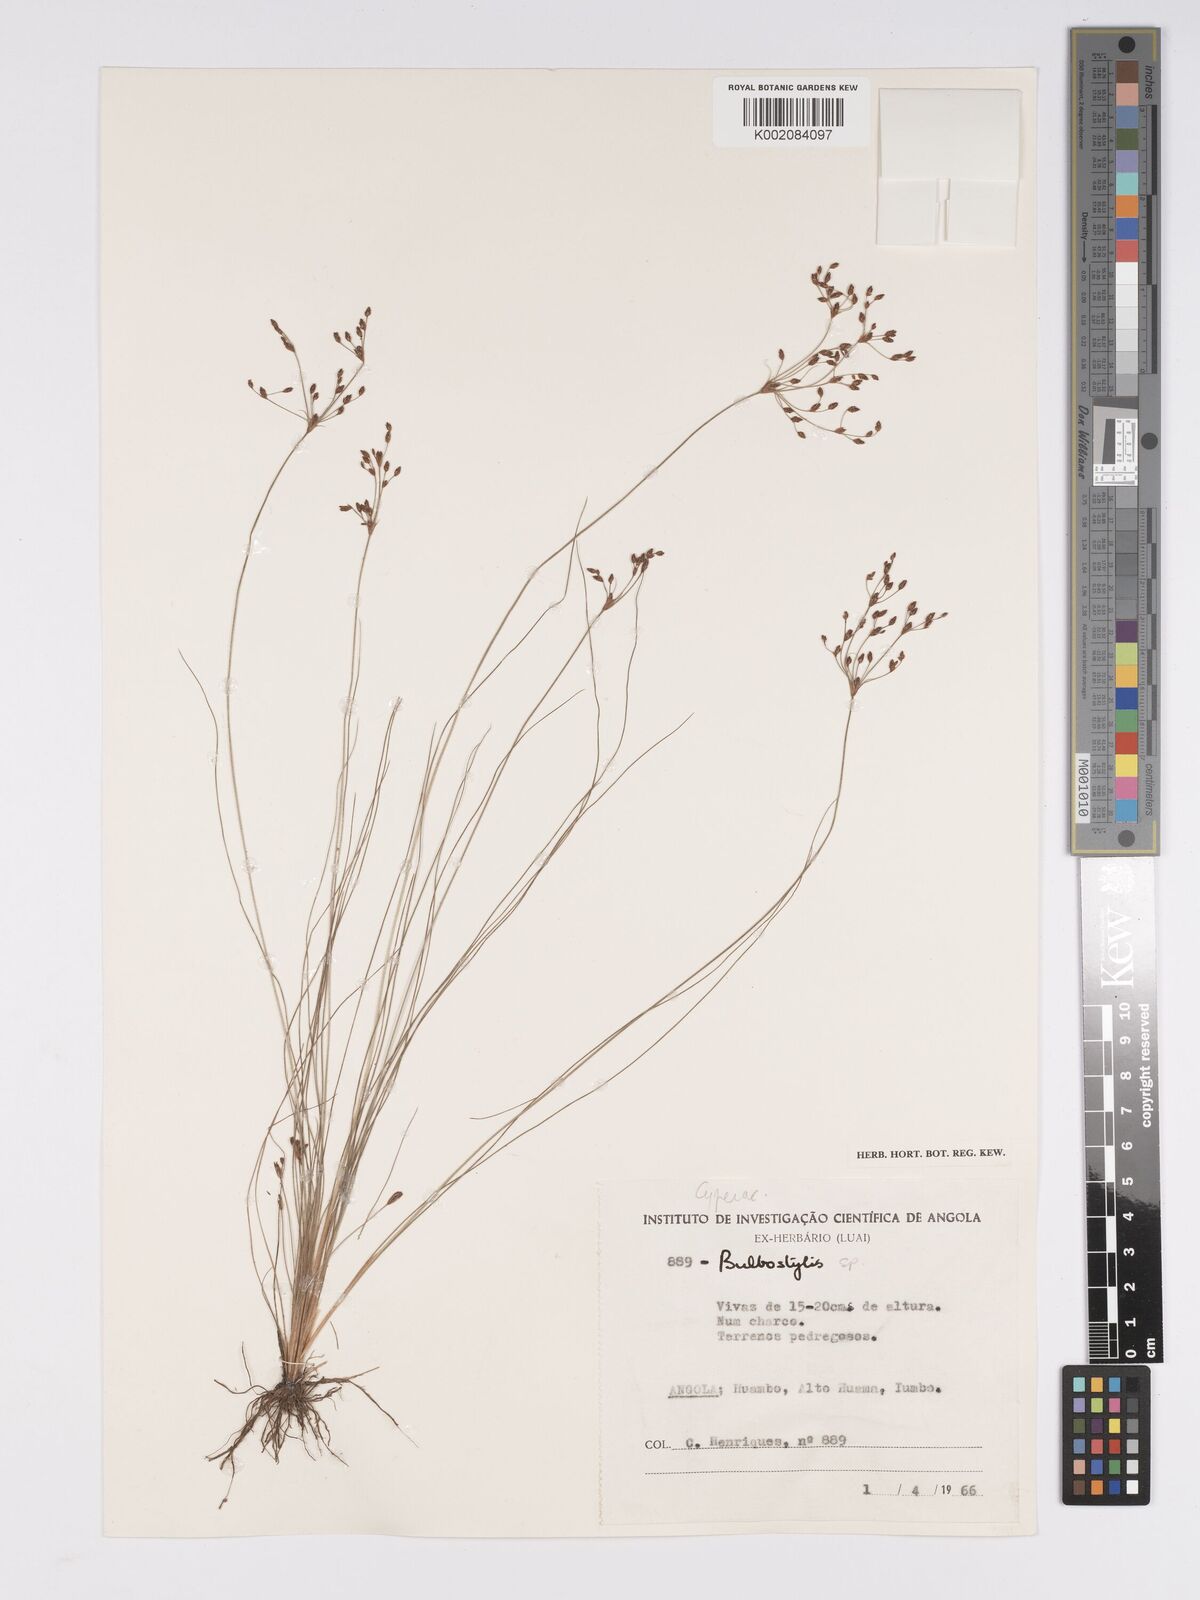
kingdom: Plantae
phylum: Tracheophyta
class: Liliopsida
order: Poales
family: Cyperaceae
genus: Bulbostylis
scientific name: Bulbostylis
